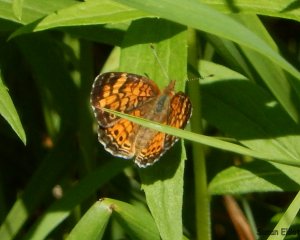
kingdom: Animalia
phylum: Arthropoda
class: Insecta
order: Lepidoptera
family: Nymphalidae
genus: Phyciodes
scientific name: Phyciodes tharos
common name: Pearl Crescent
